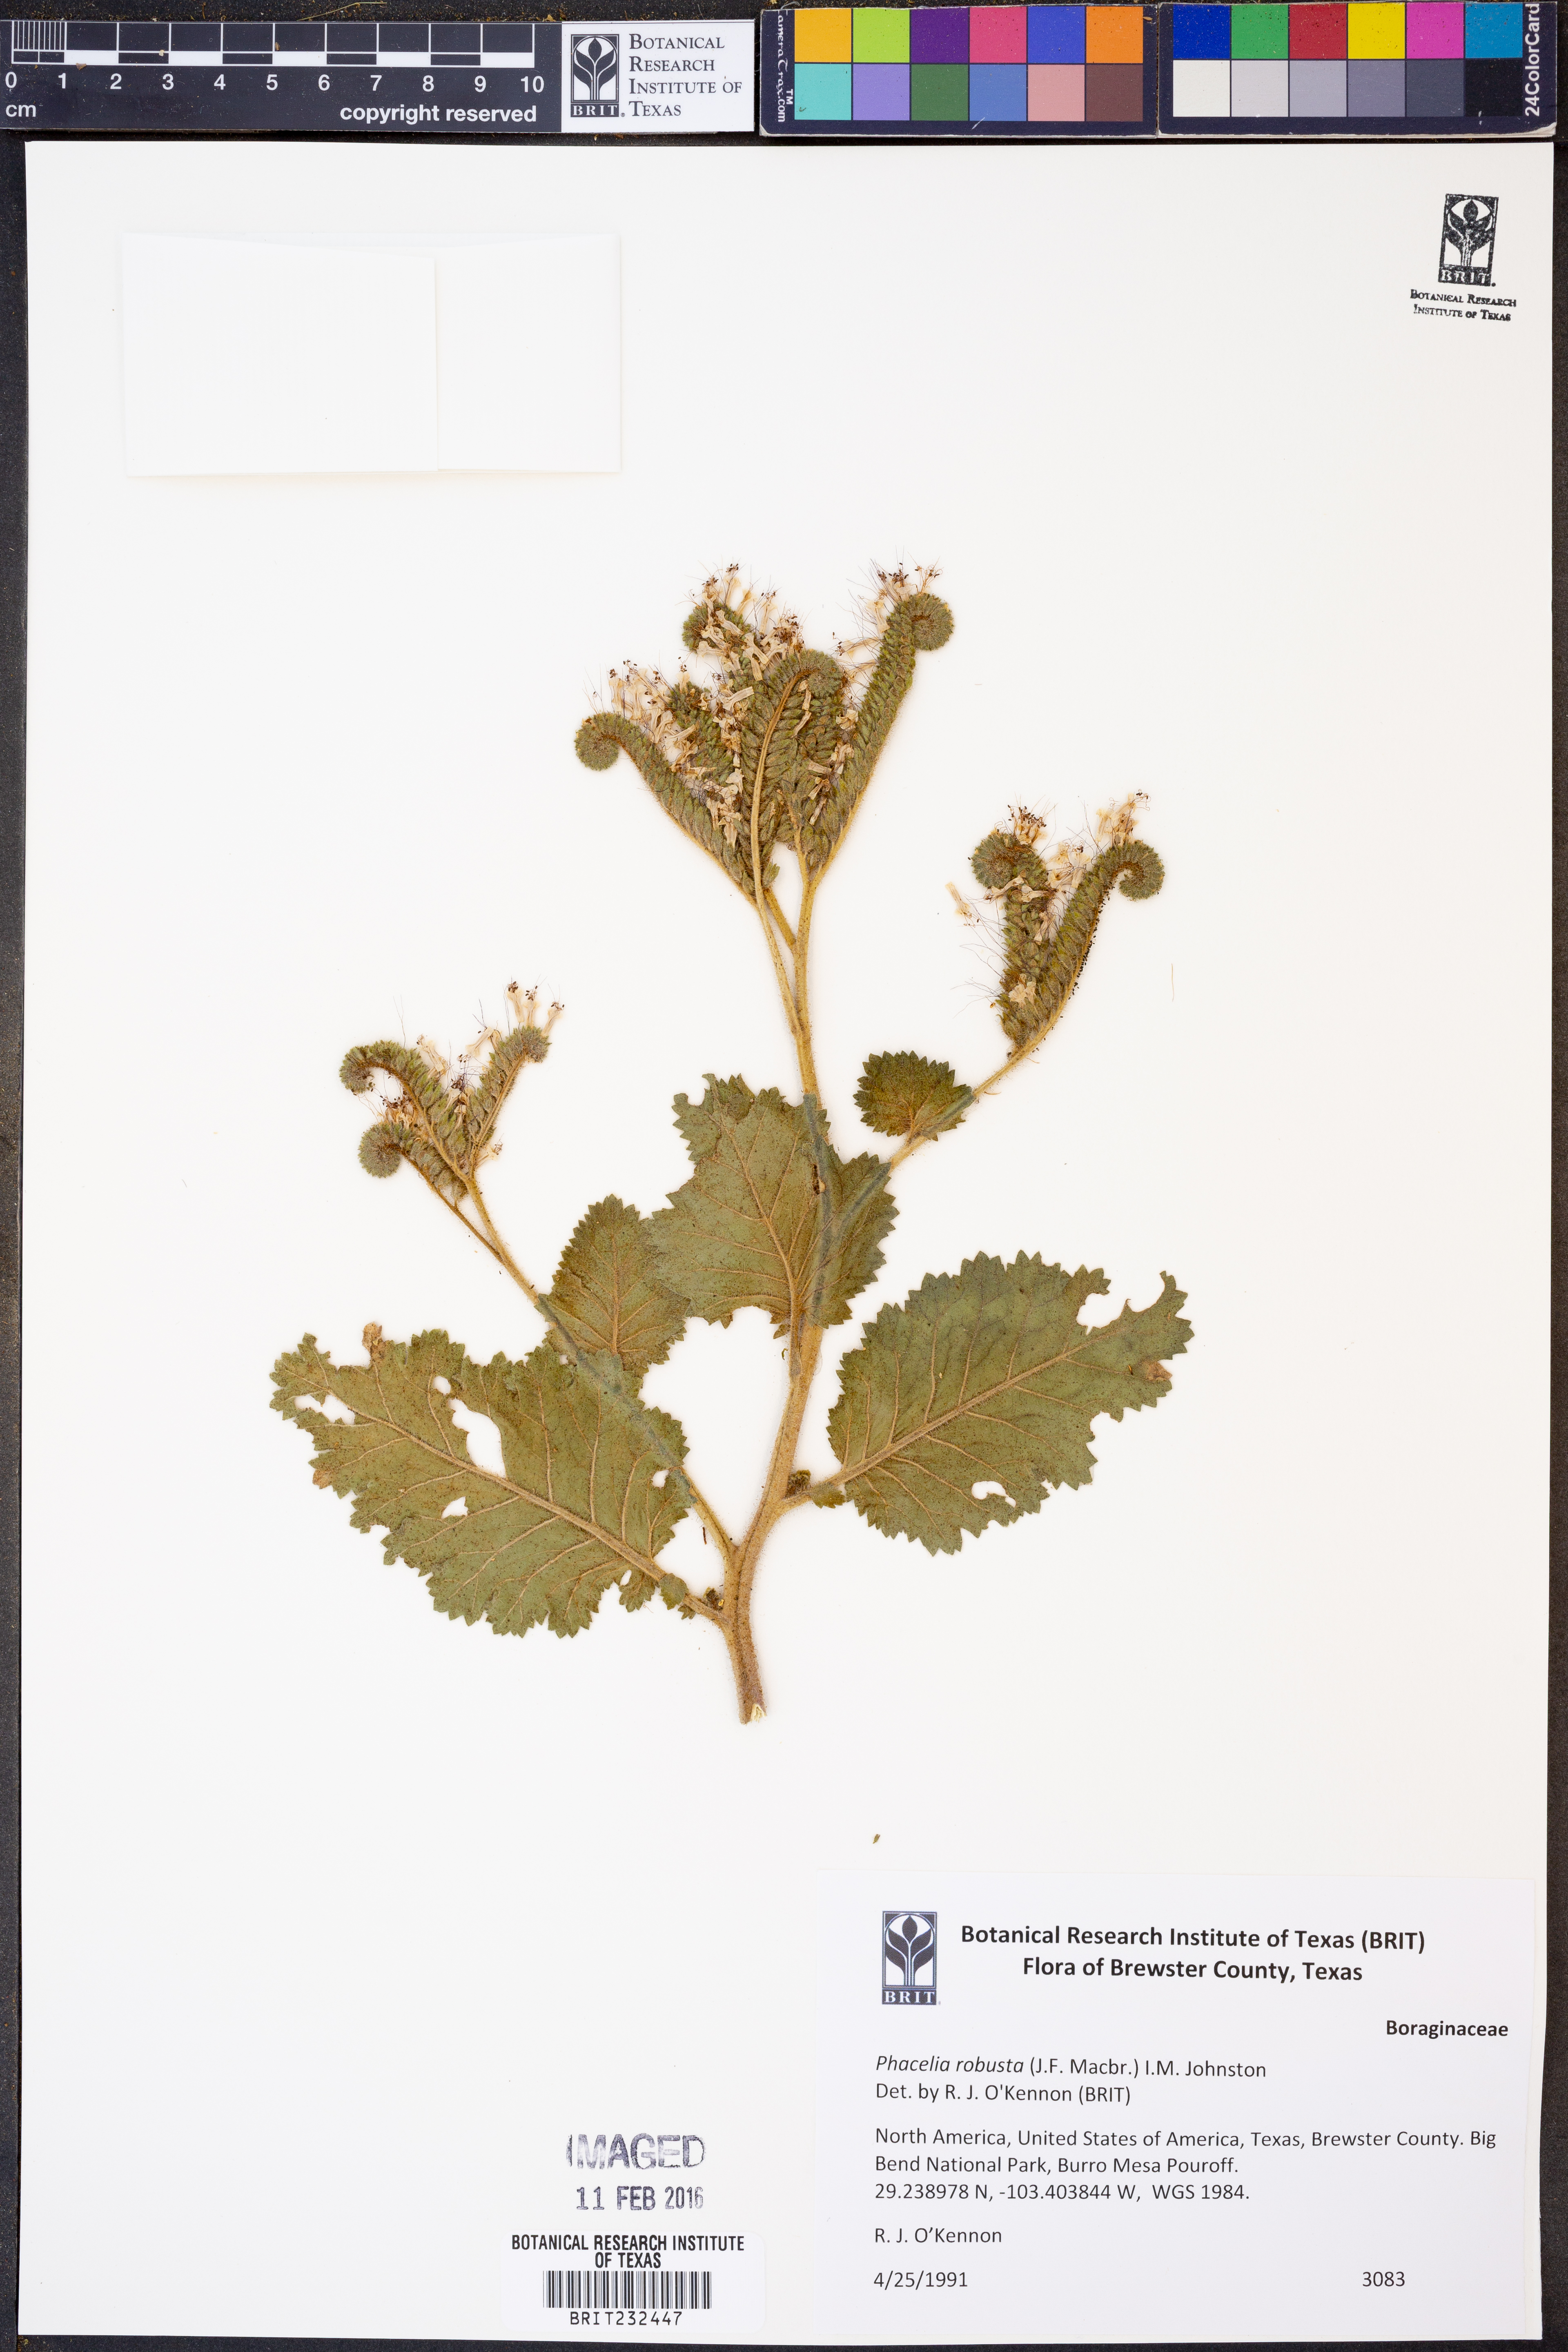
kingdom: Plantae
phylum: Tracheophyta
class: Magnoliopsida
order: Boraginales
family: Hydrophyllaceae
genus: Phacelia
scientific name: Phacelia robusta
